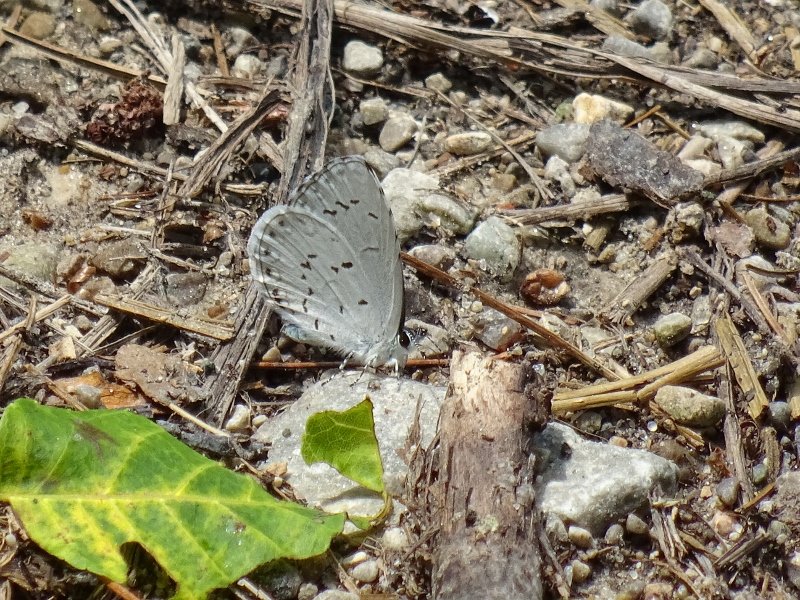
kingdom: Animalia
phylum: Arthropoda
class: Insecta
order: Lepidoptera
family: Lycaenidae
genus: Celastrina
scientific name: Celastrina
